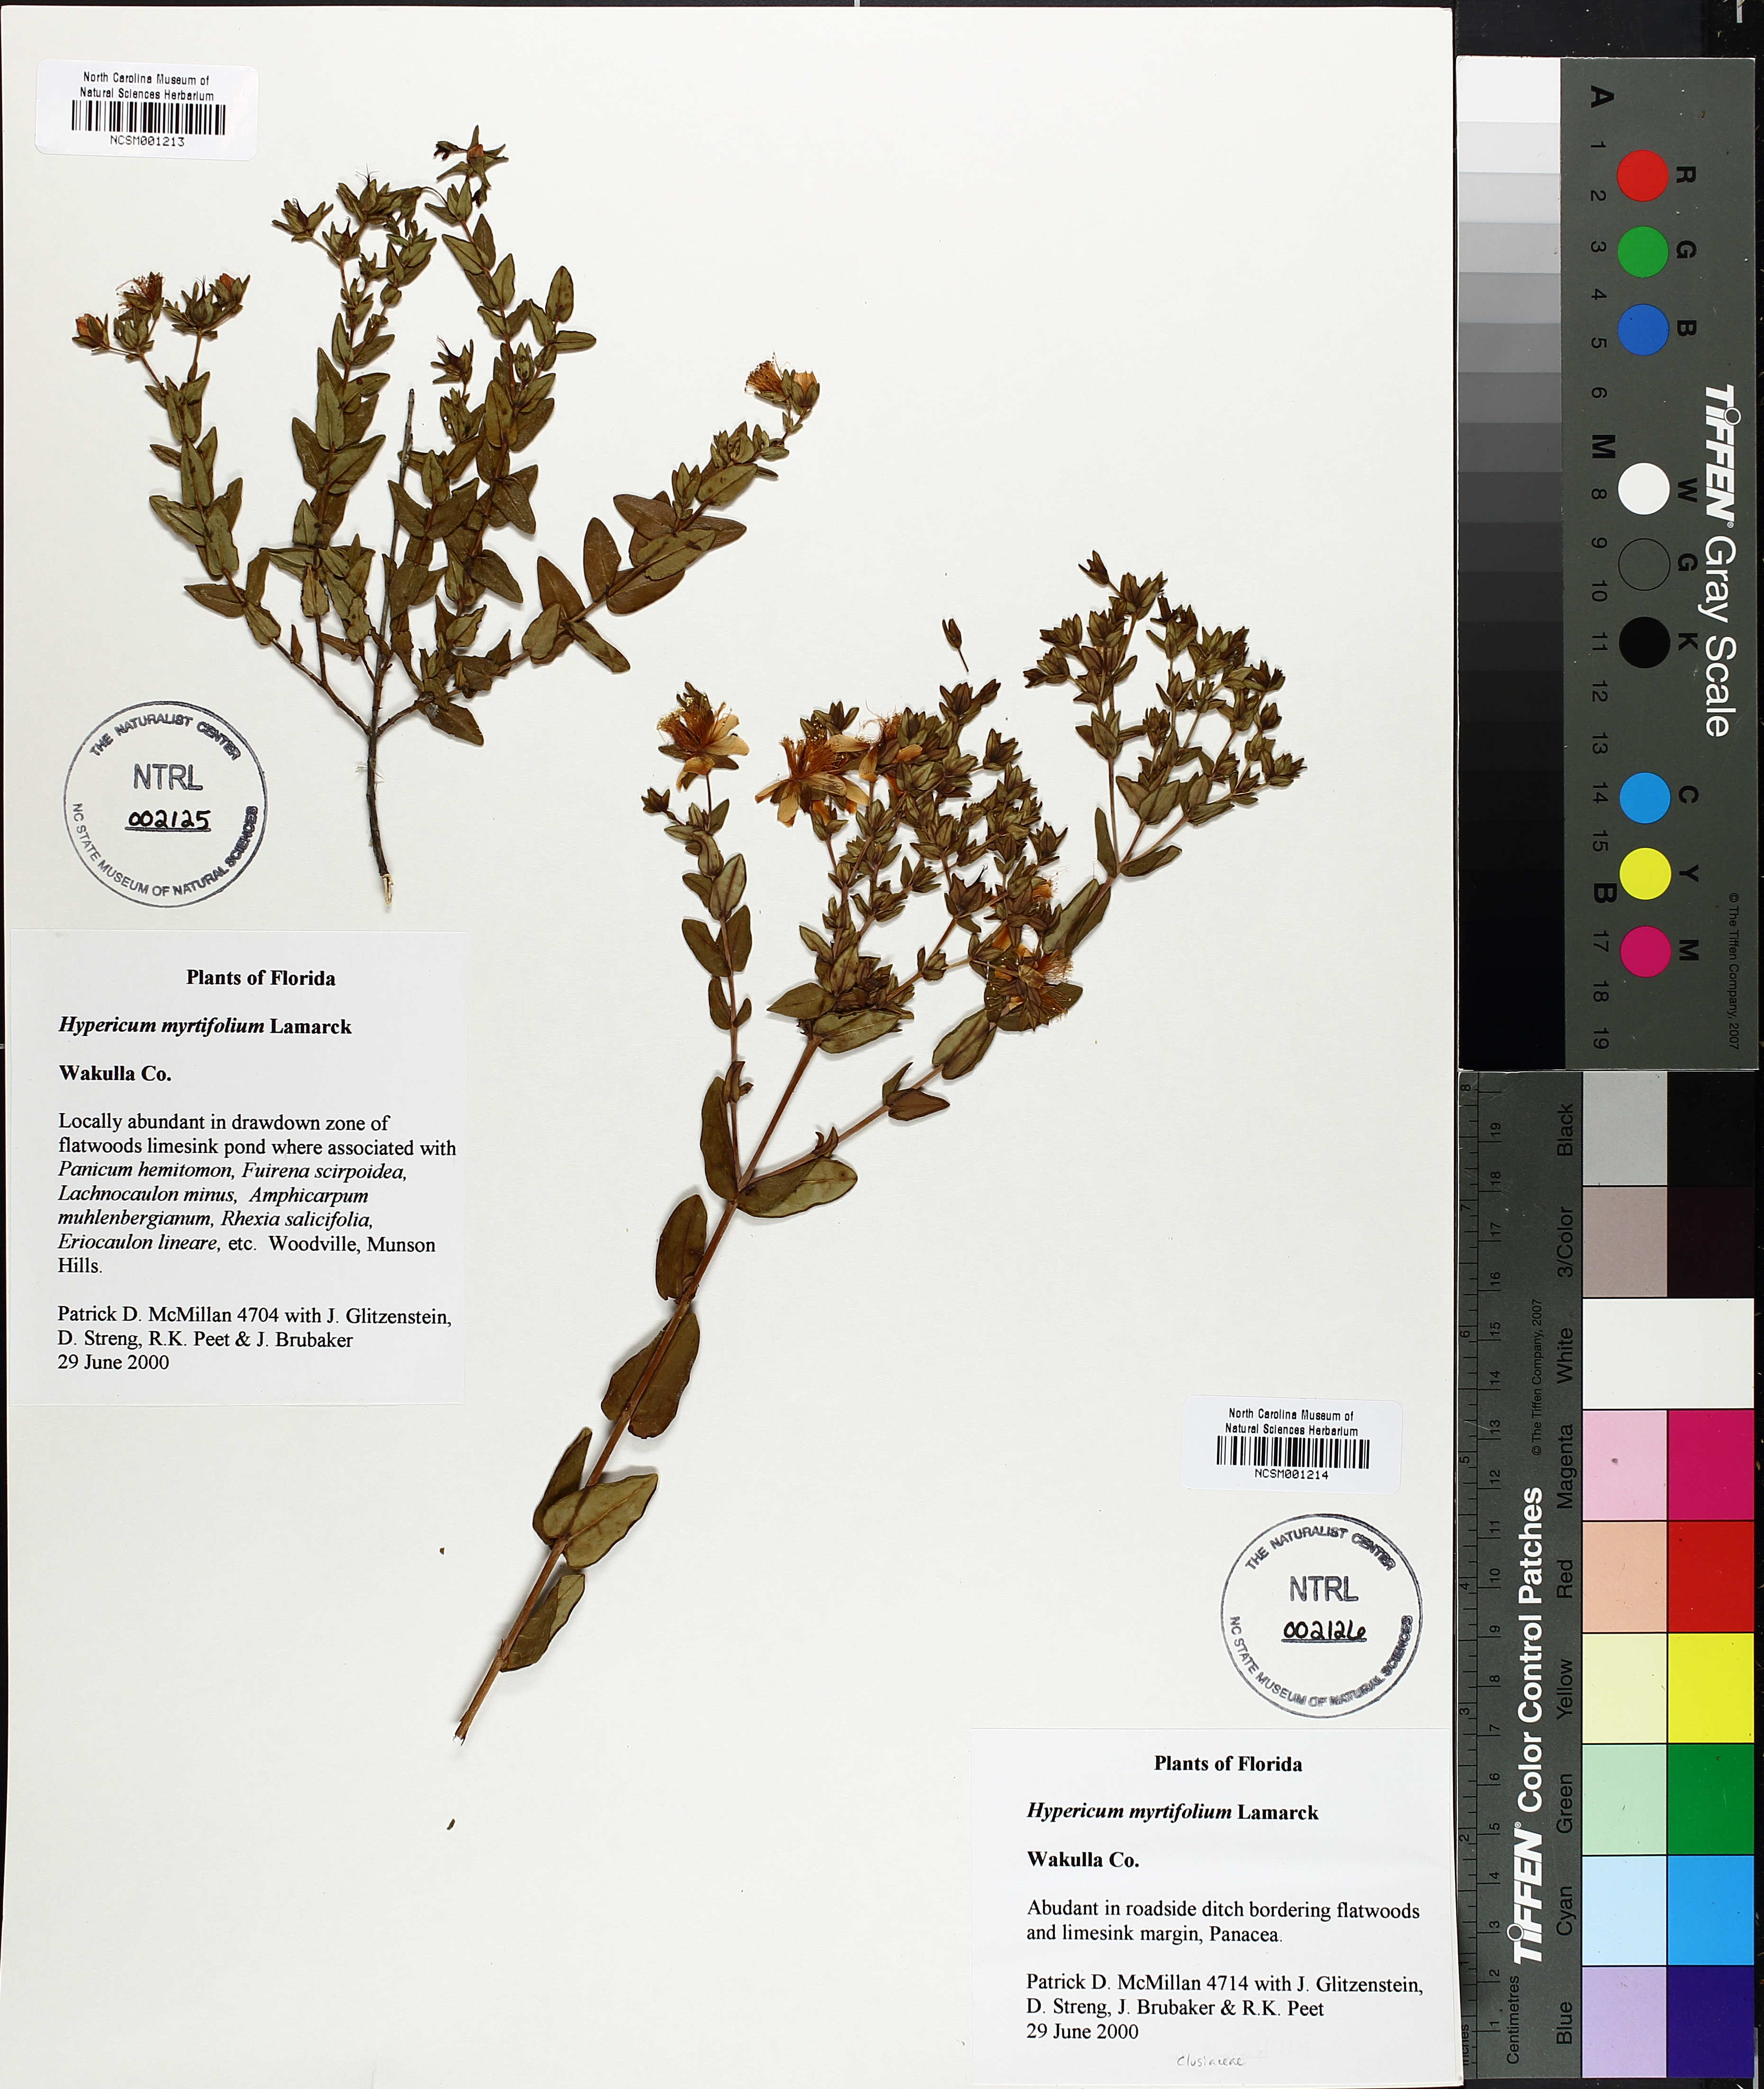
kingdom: Plantae
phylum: Tracheophyta
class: Magnoliopsida
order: Malpighiales
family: Hypericaceae
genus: Hypericum
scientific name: Hypericum myrtifolium
